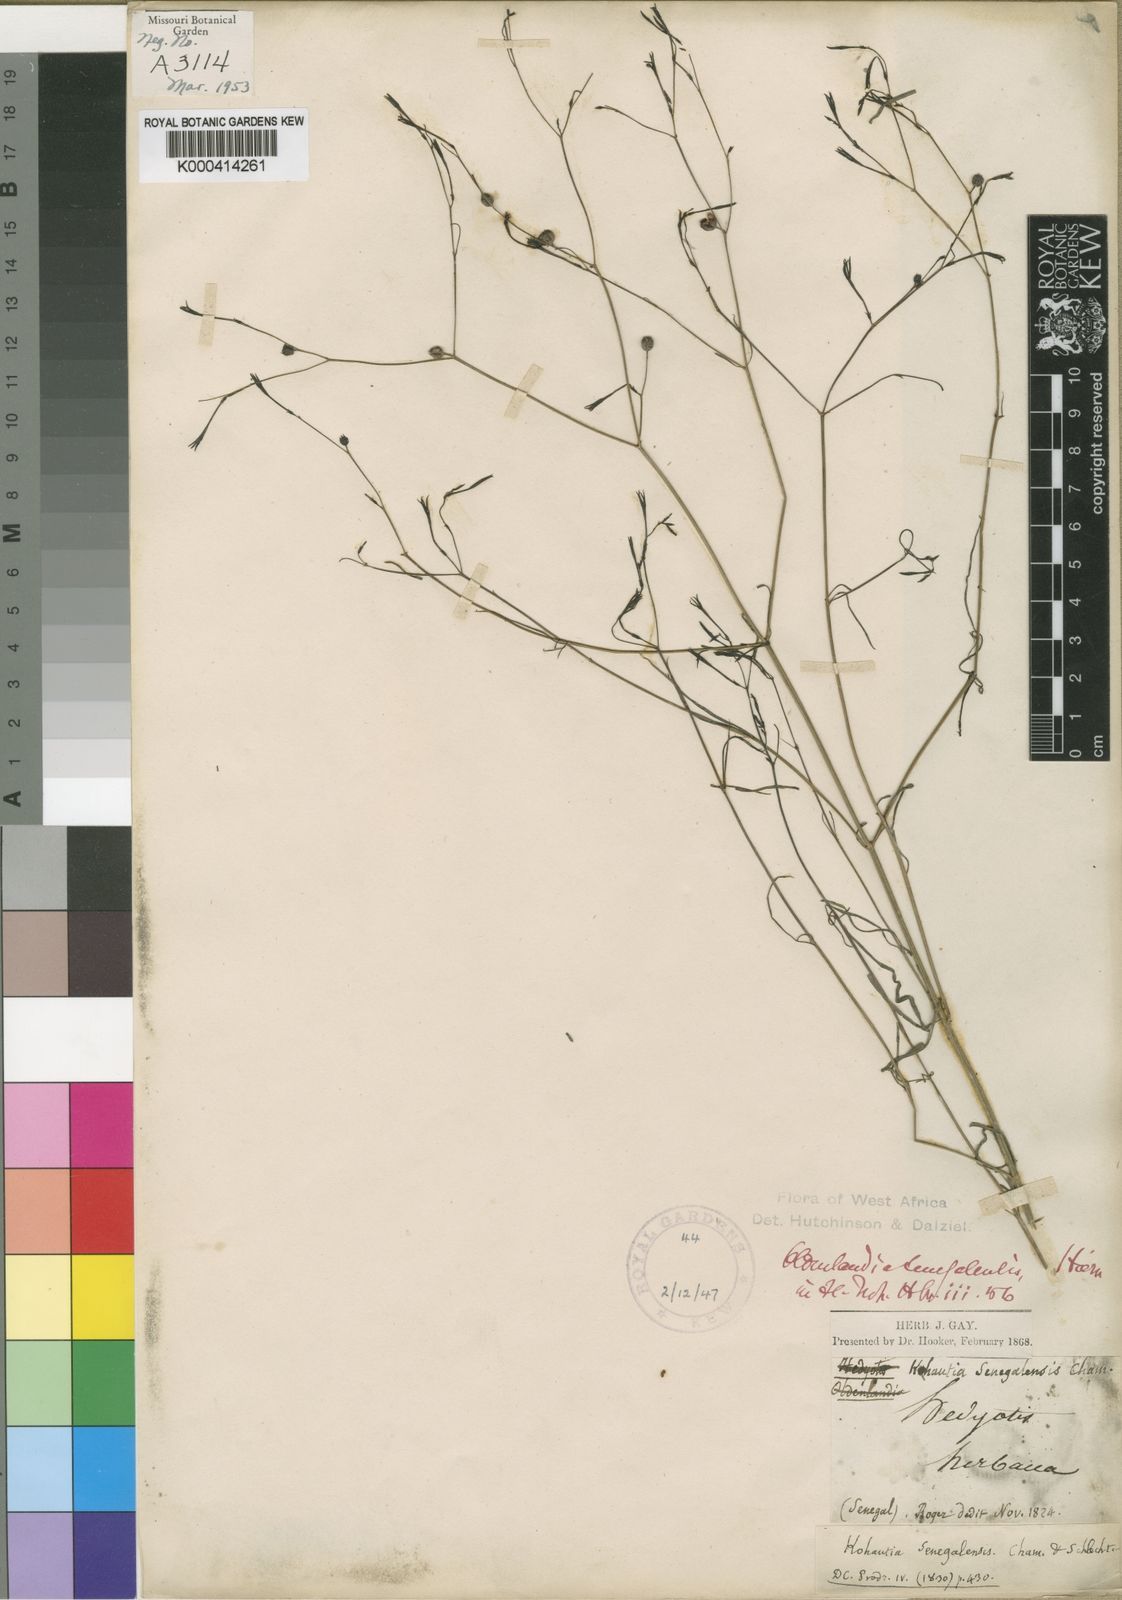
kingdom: Plantae
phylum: Tracheophyta
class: Magnoliopsida
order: Gentianales
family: Rubiaceae
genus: Kohautia
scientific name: Kohautia tenuis
